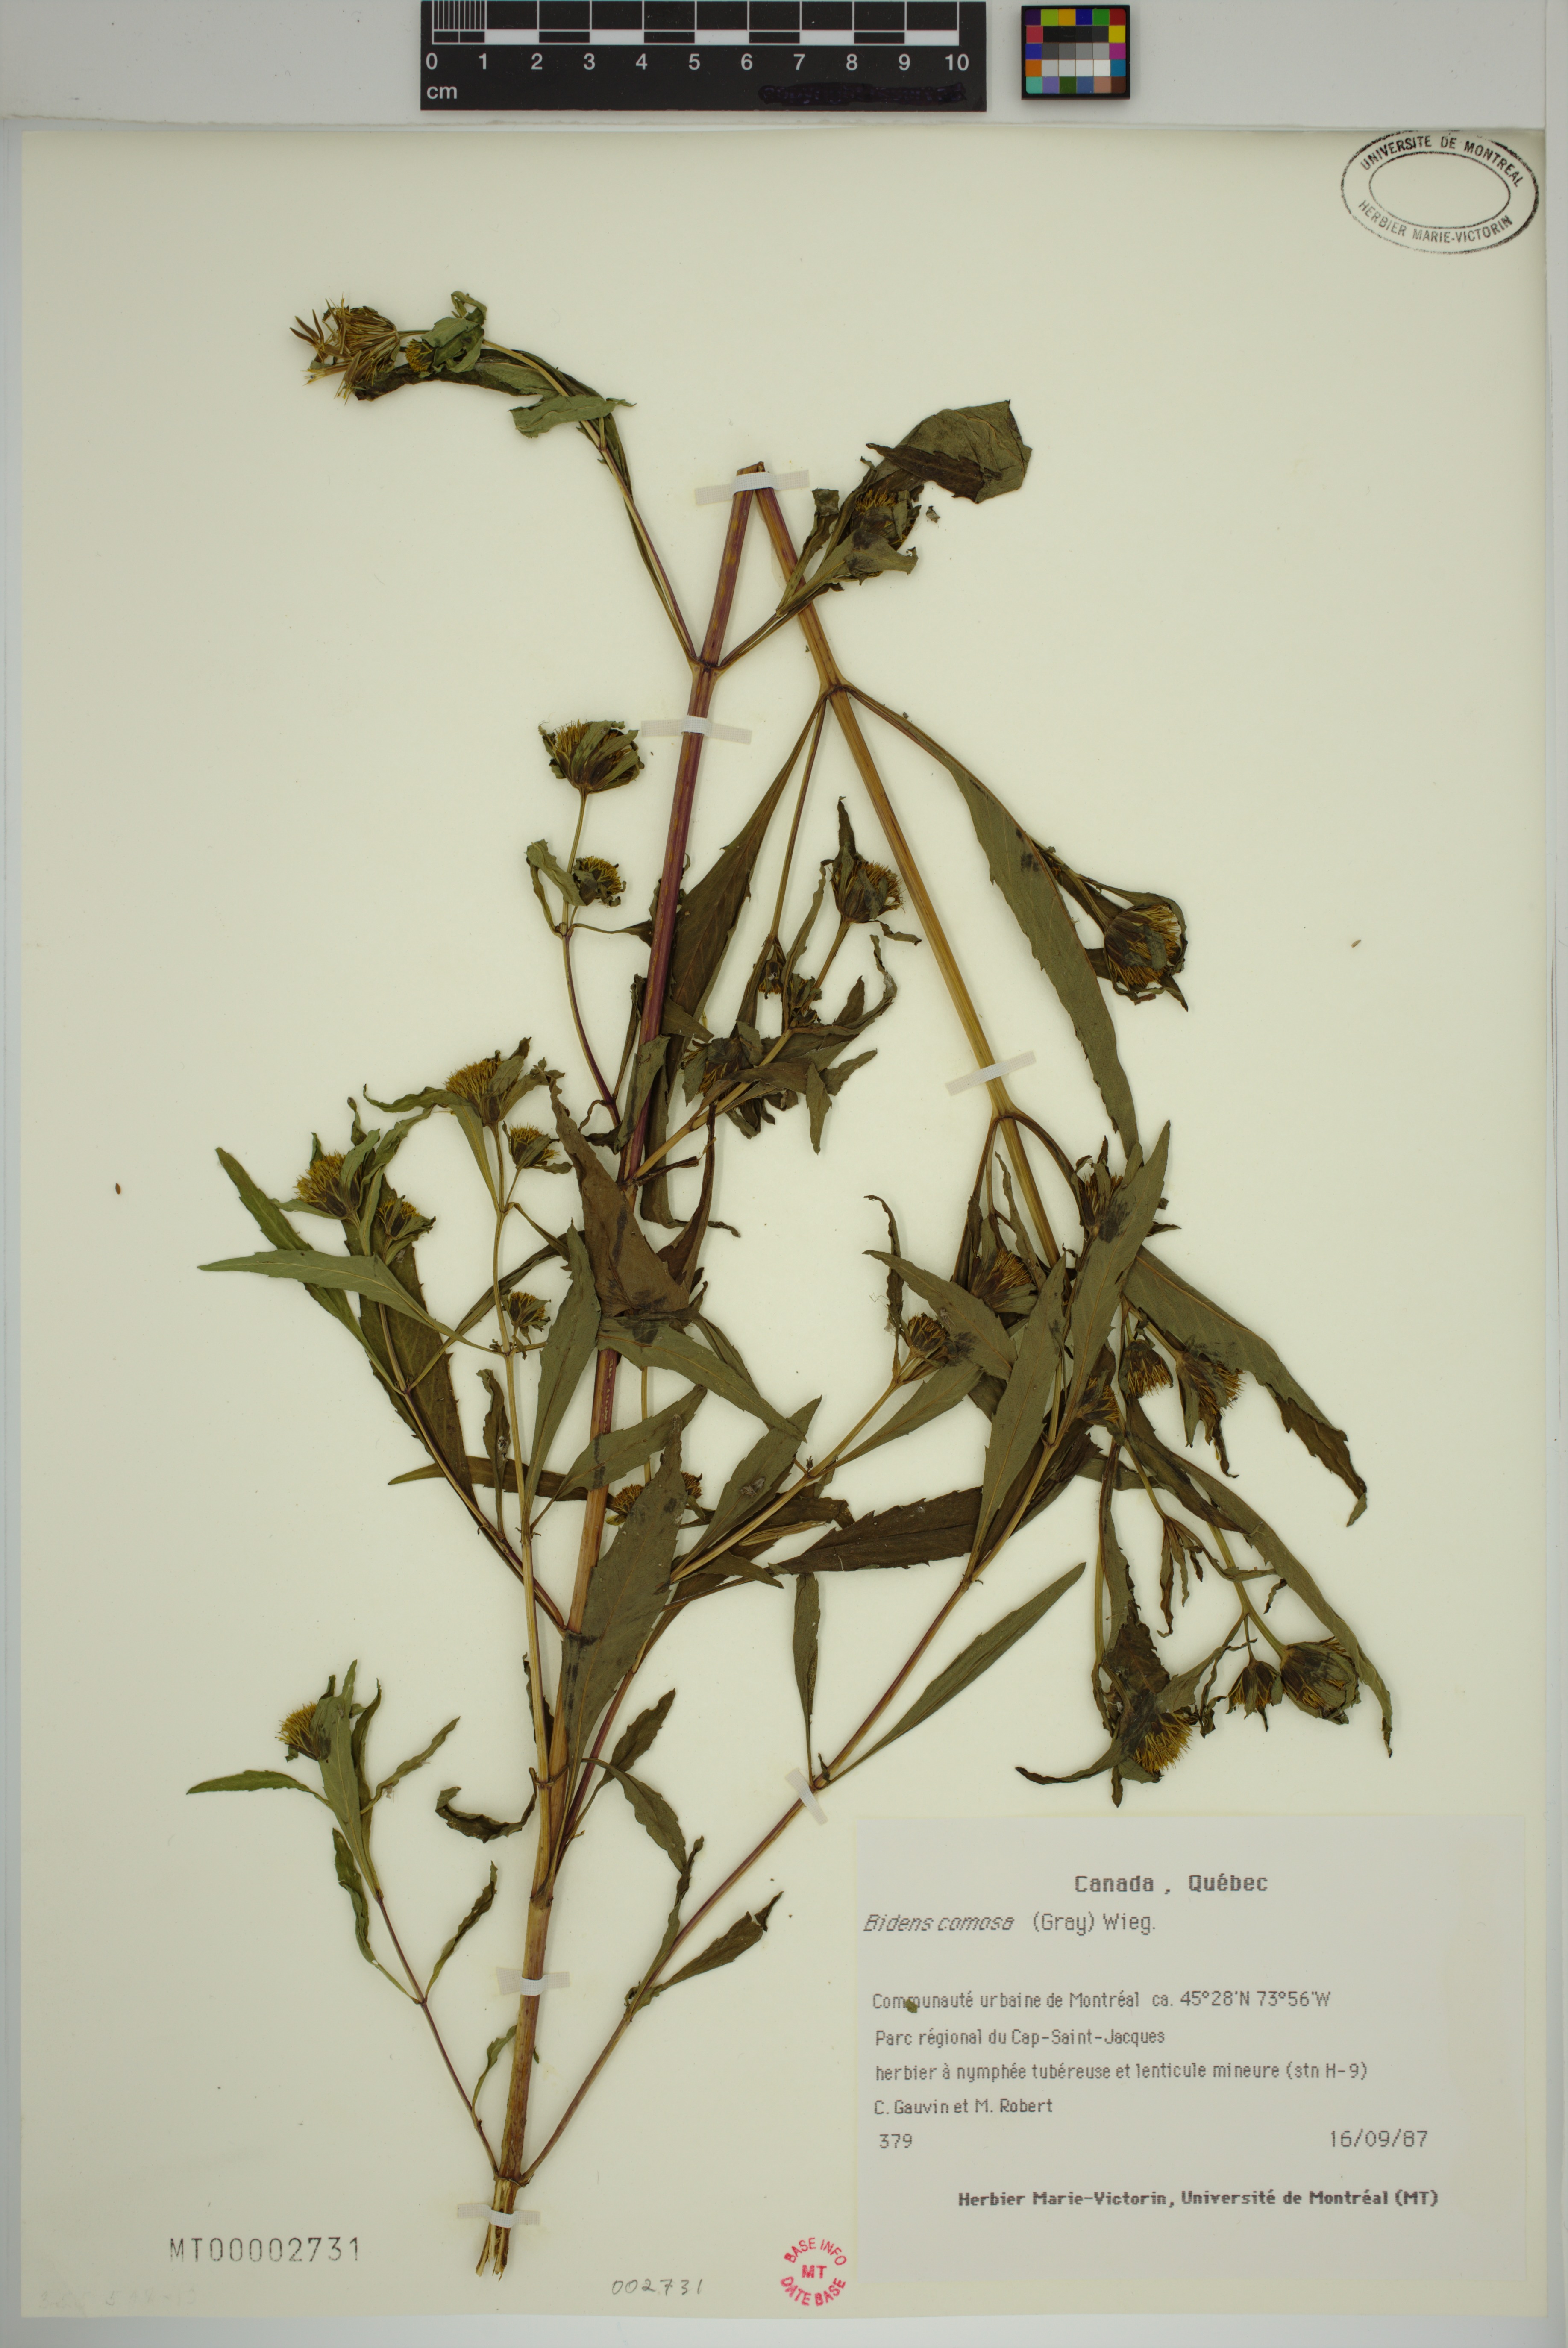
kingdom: Plantae
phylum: Tracheophyta
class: Magnoliopsida
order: Asterales
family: Asteraceae
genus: Bidens
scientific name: Bidens tripartita
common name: Trifid bur-marigold
